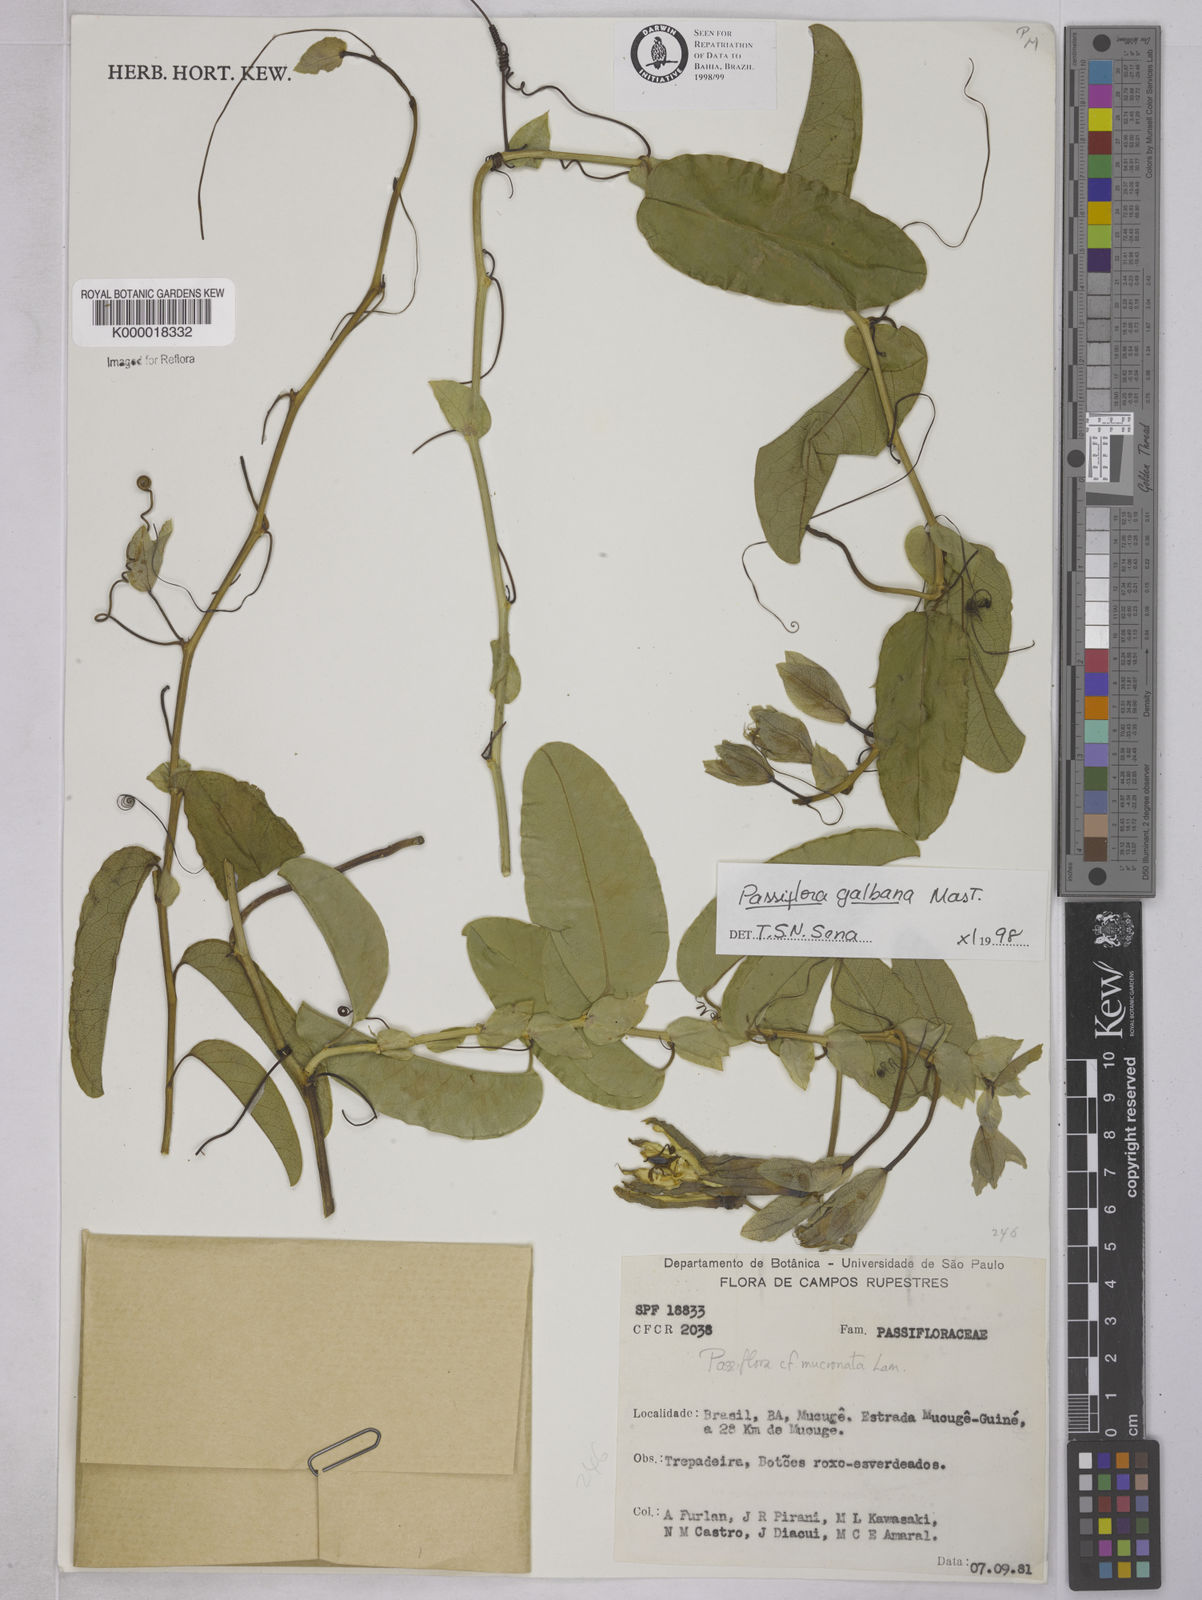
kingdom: Plantae
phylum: Tracheophyta
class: Magnoliopsida
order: Malpighiales
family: Passifloraceae
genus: Passiflora
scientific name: Passiflora silvestris
